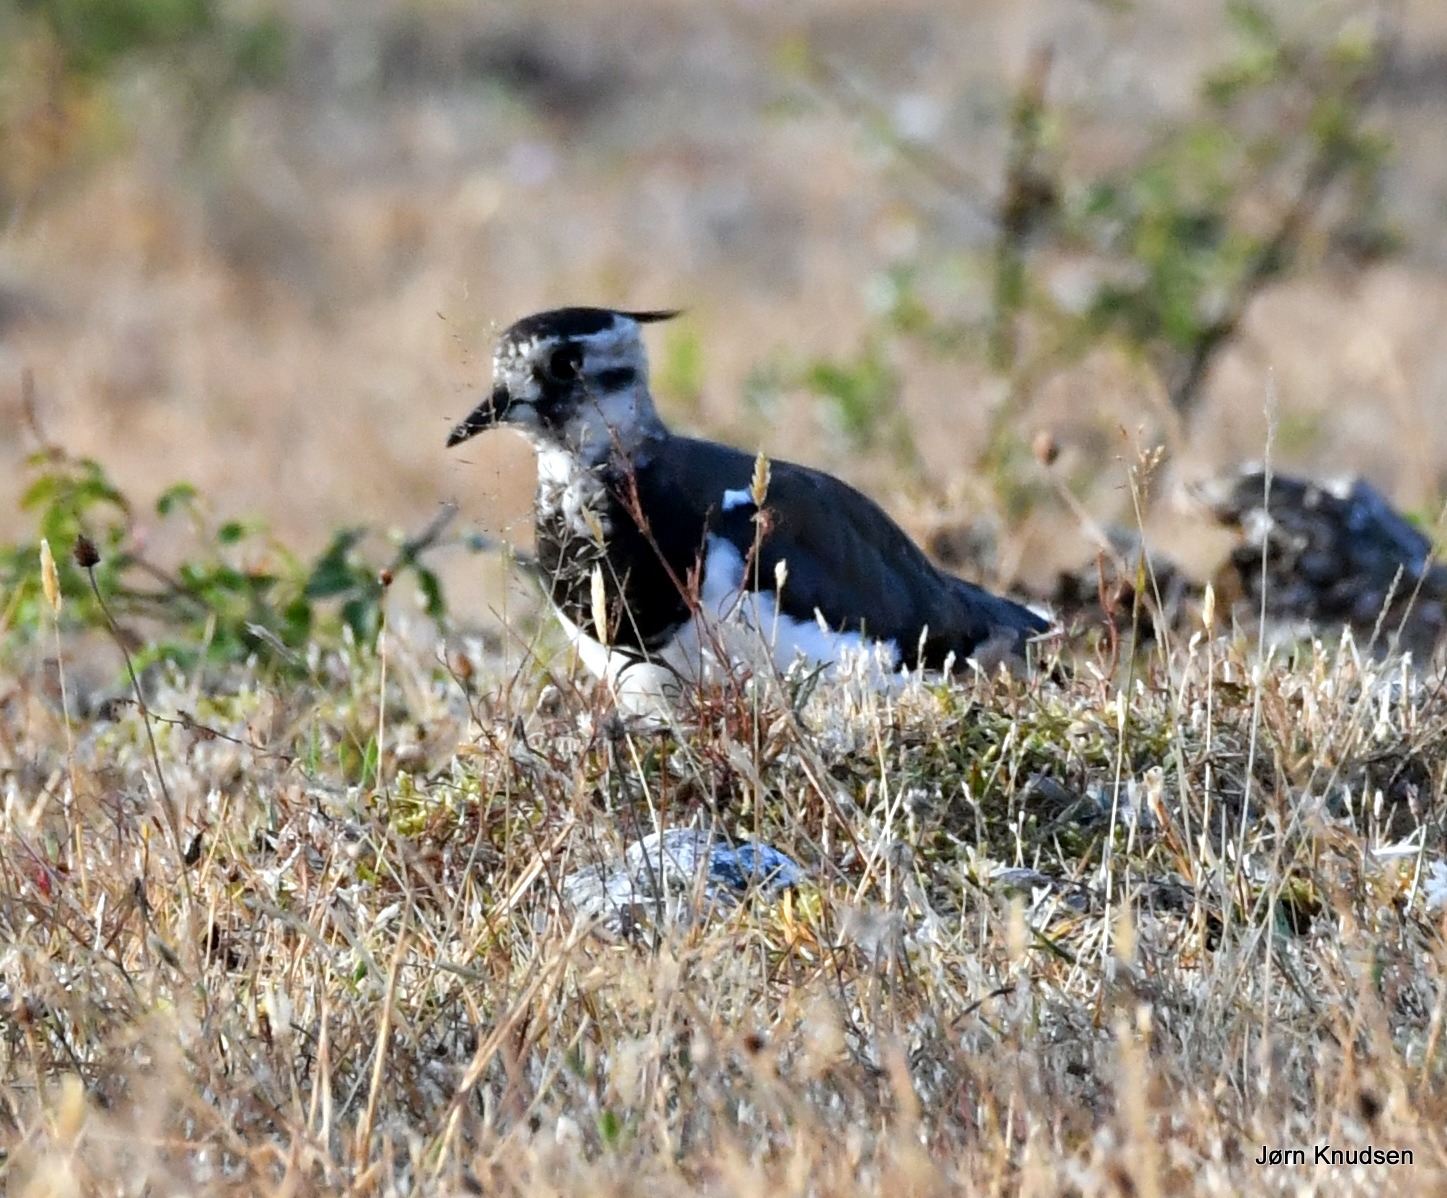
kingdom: Animalia
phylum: Chordata
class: Aves
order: Charadriiformes
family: Charadriidae
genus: Vanellus
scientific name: Vanellus vanellus
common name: Vibe
